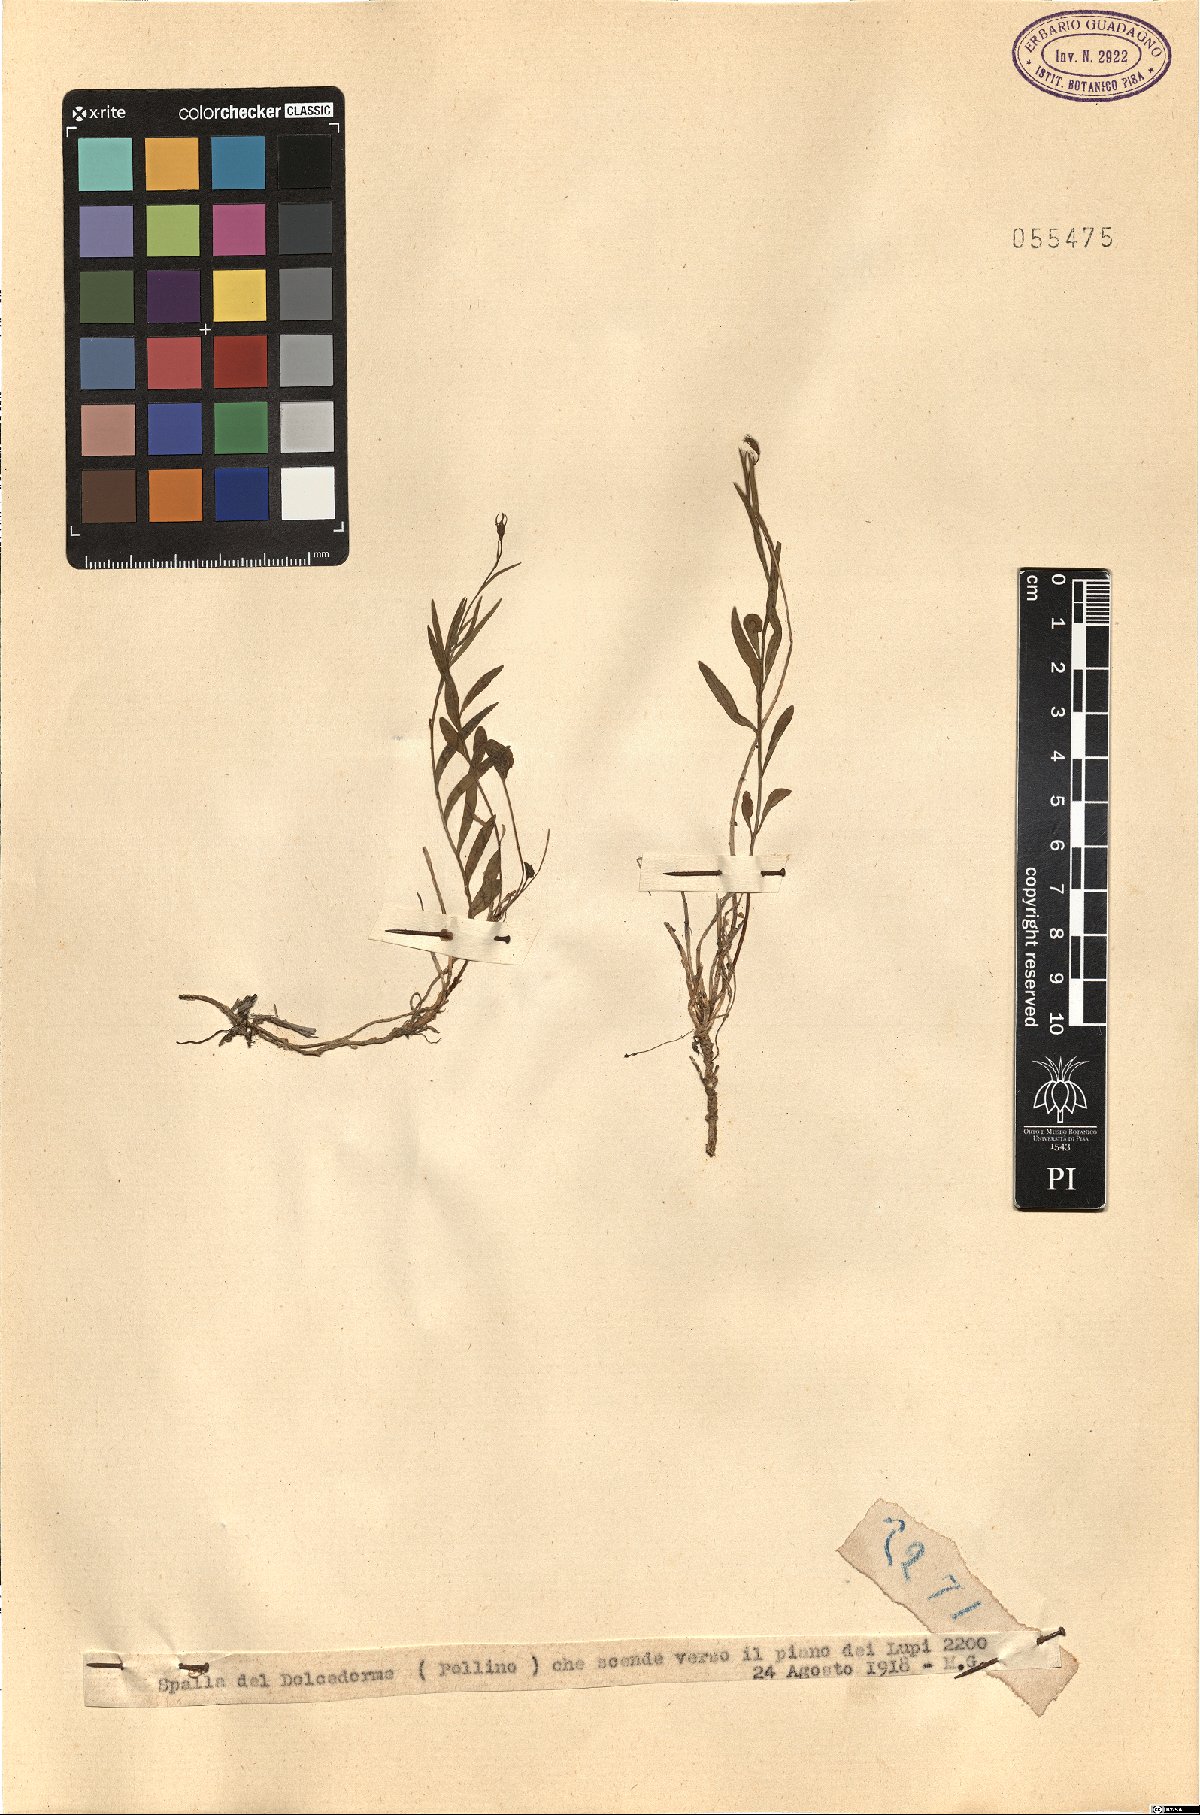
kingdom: Plantae
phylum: Tracheophyta
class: Magnoliopsida
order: Asterales
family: Campanulaceae
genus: Campanula
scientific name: Campanula
